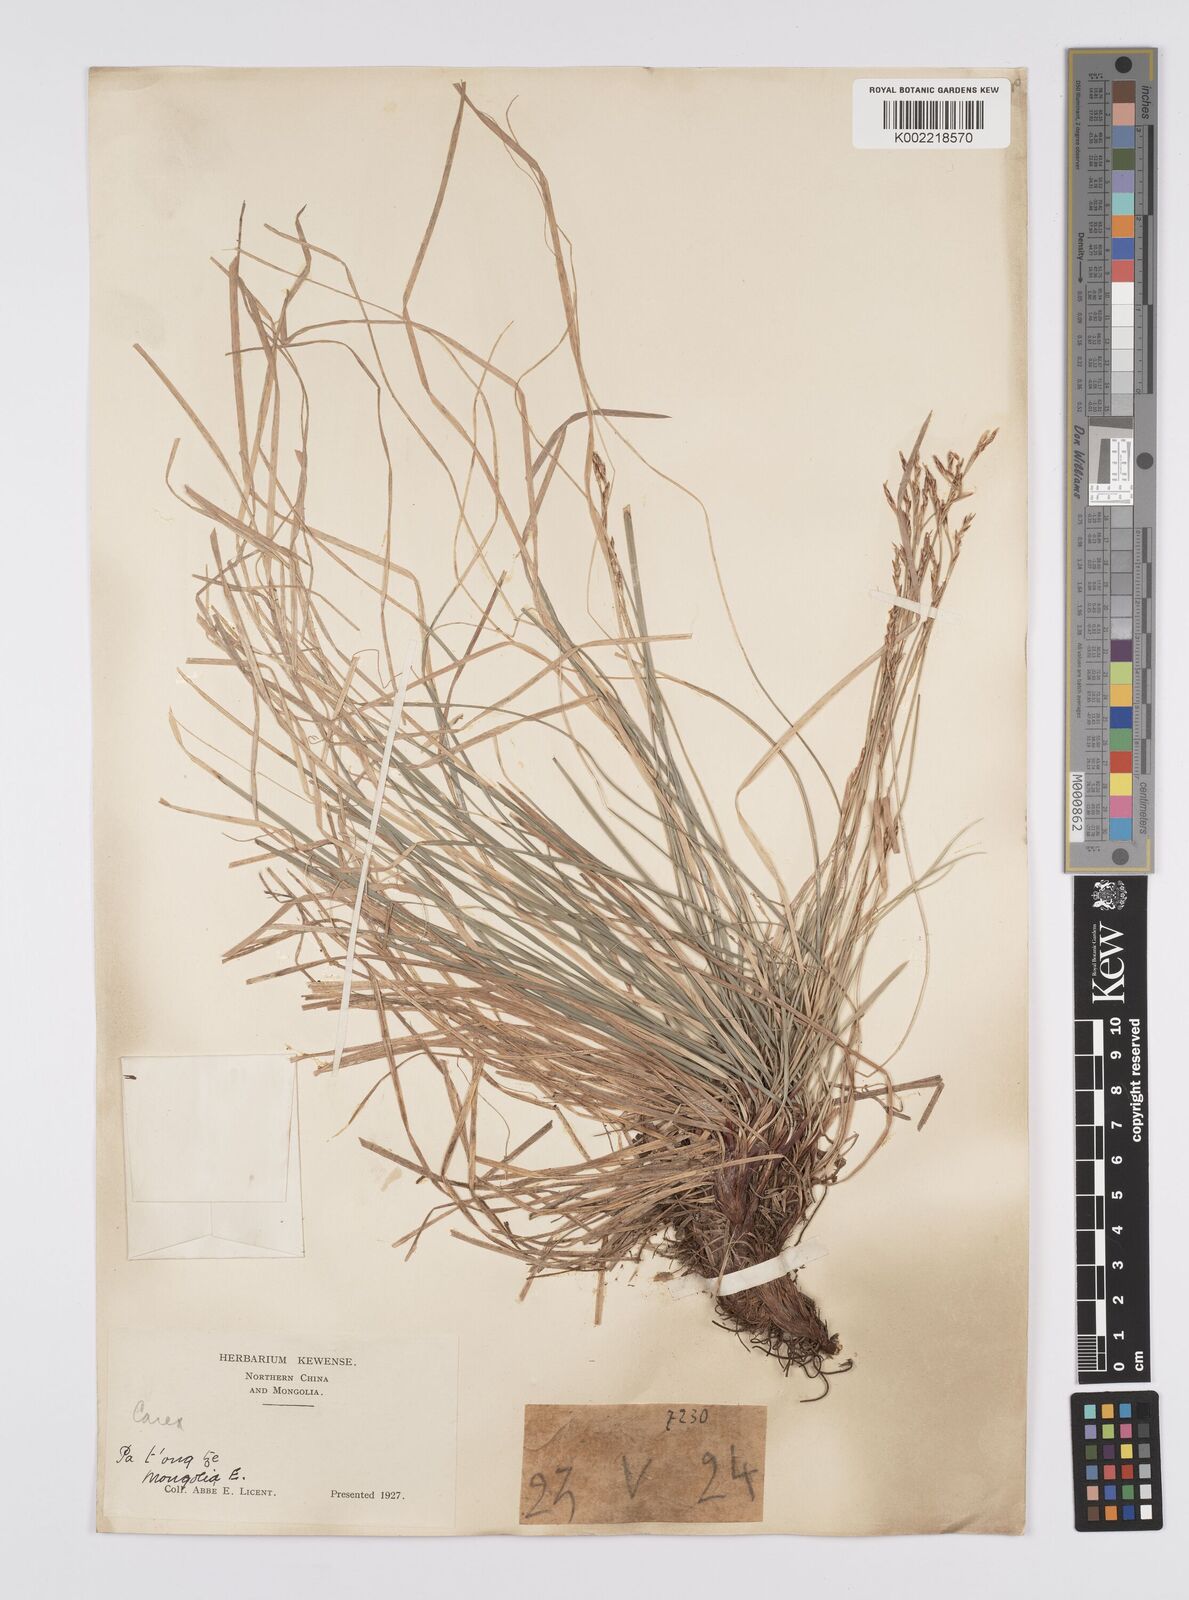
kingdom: Plantae
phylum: Tracheophyta
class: Liliopsida
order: Poales
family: Cyperaceae
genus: Carex
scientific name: Carex pediformis
